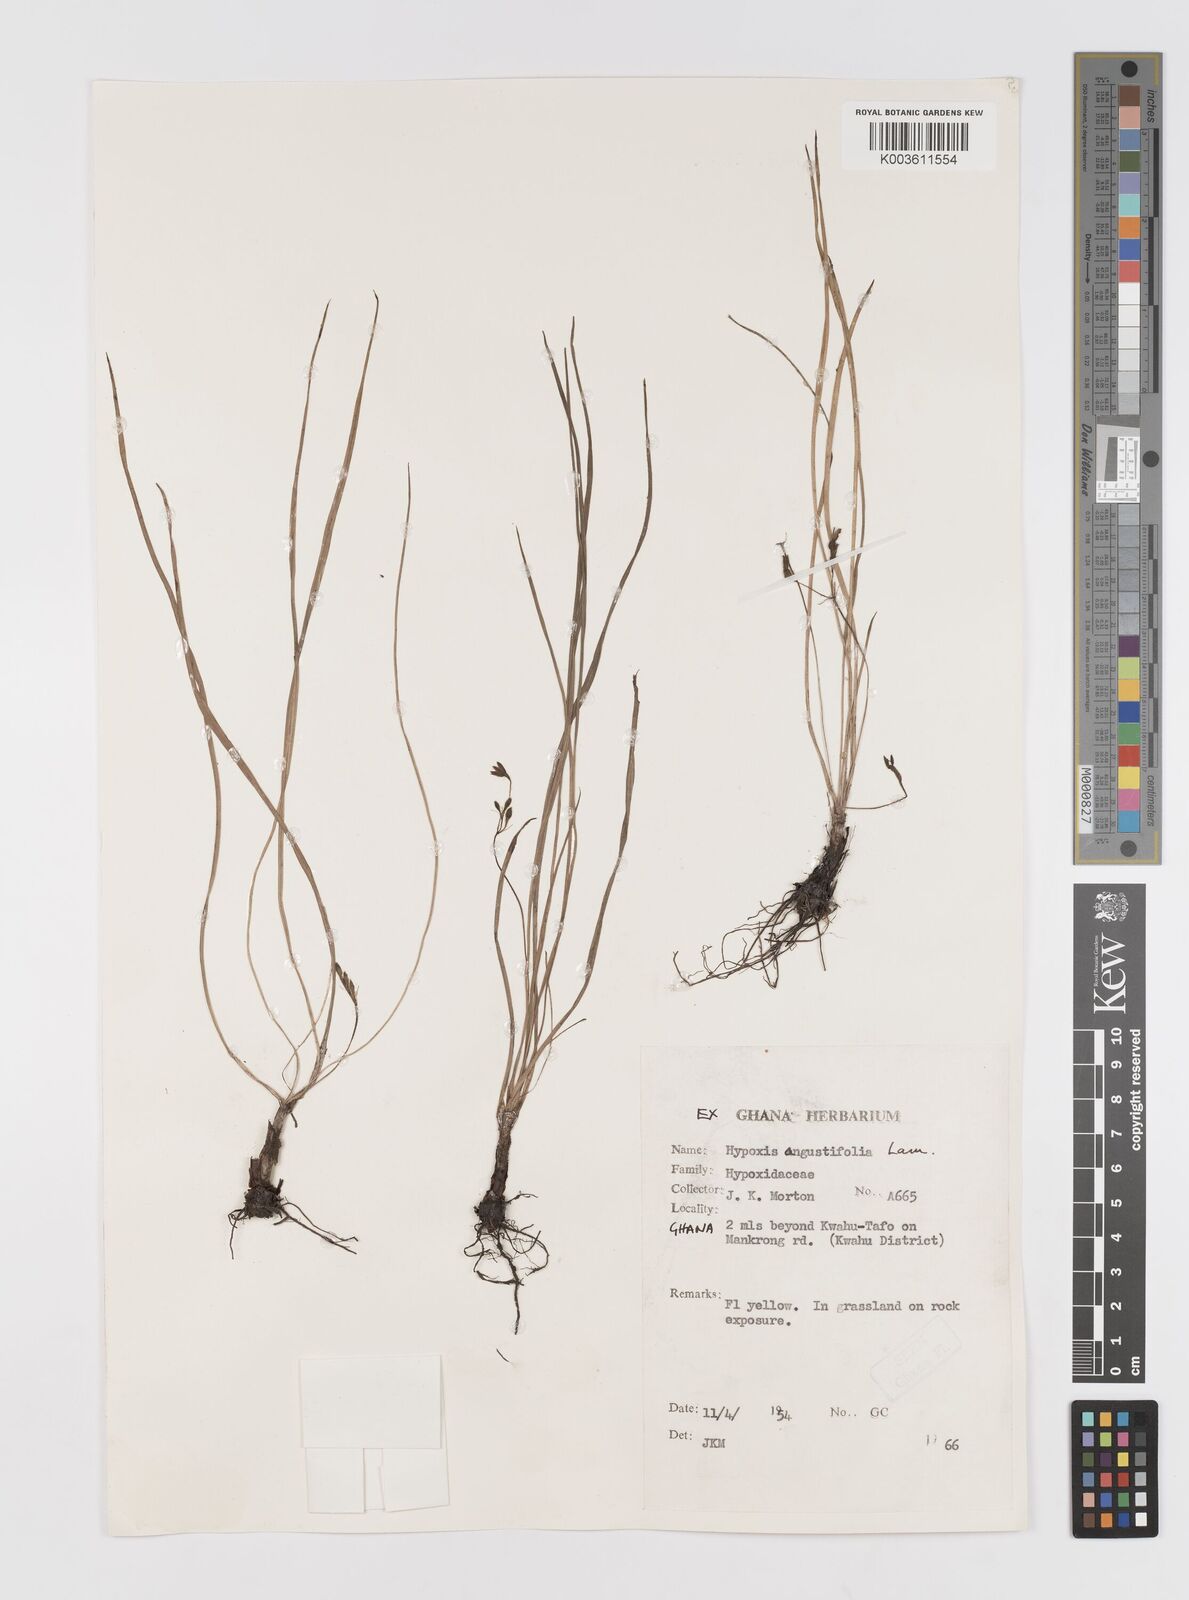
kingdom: Plantae
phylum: Tracheophyta
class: Liliopsida
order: Asparagales
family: Hypoxidaceae
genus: Hypoxis
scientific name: Hypoxis angustifolia
